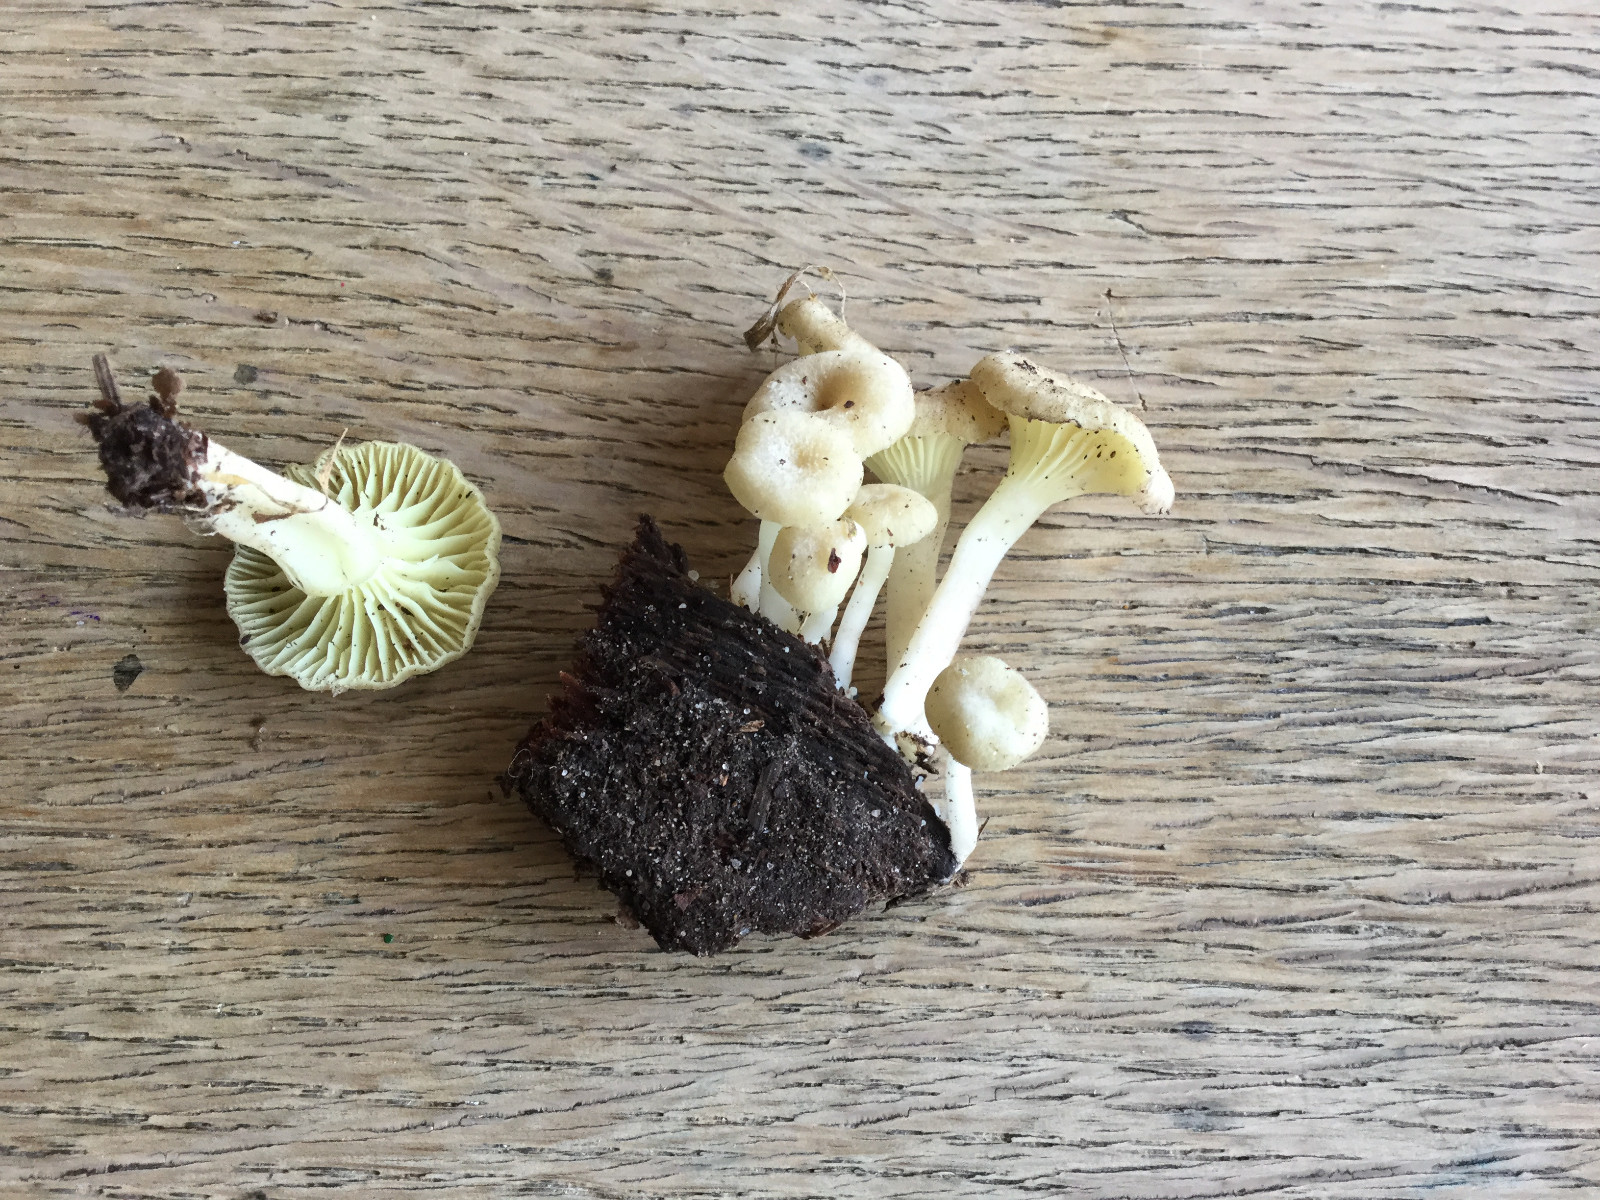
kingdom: Fungi
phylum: Basidiomycota
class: Agaricomycetes
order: Agaricales
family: Hygrophoraceae
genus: Chrysomphalina
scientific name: Chrysomphalina grossula
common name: stød-gyldenblad
